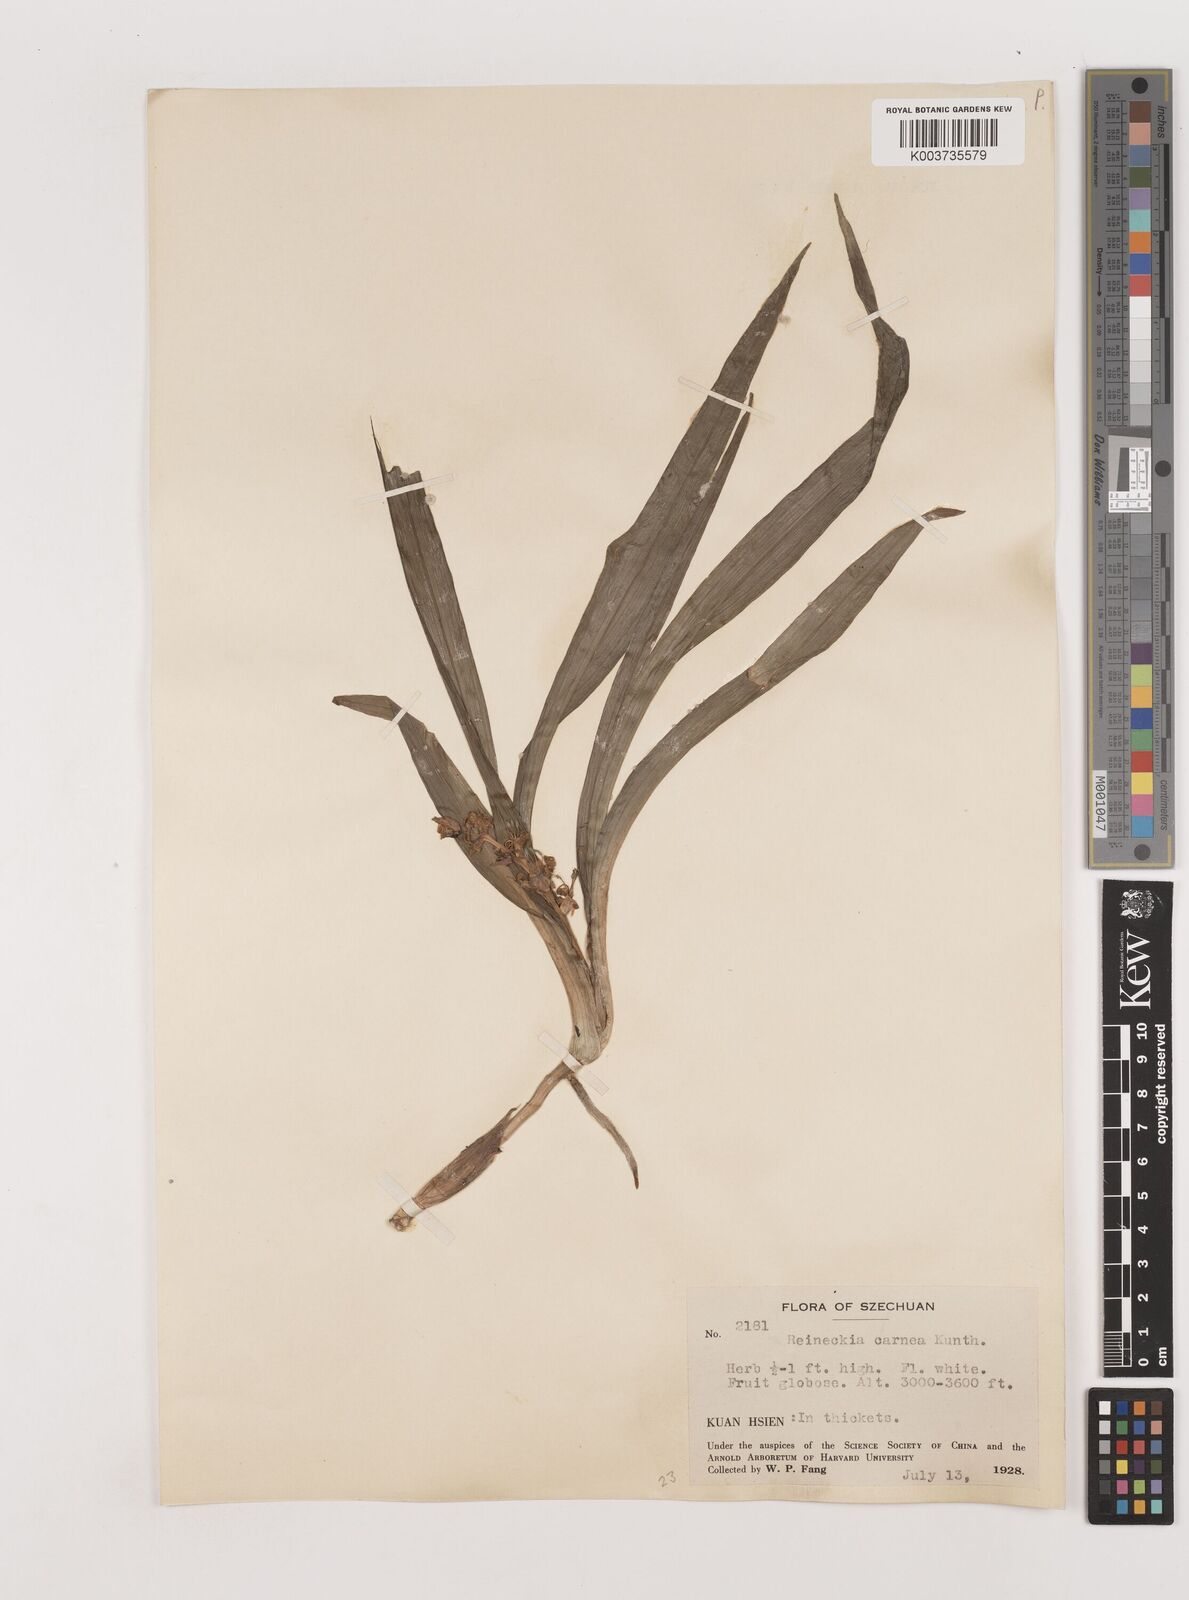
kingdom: Plantae
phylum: Tracheophyta
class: Liliopsida
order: Asparagales
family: Asparagaceae
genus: Reineckea
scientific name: Reineckea carnea
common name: Reineckea
